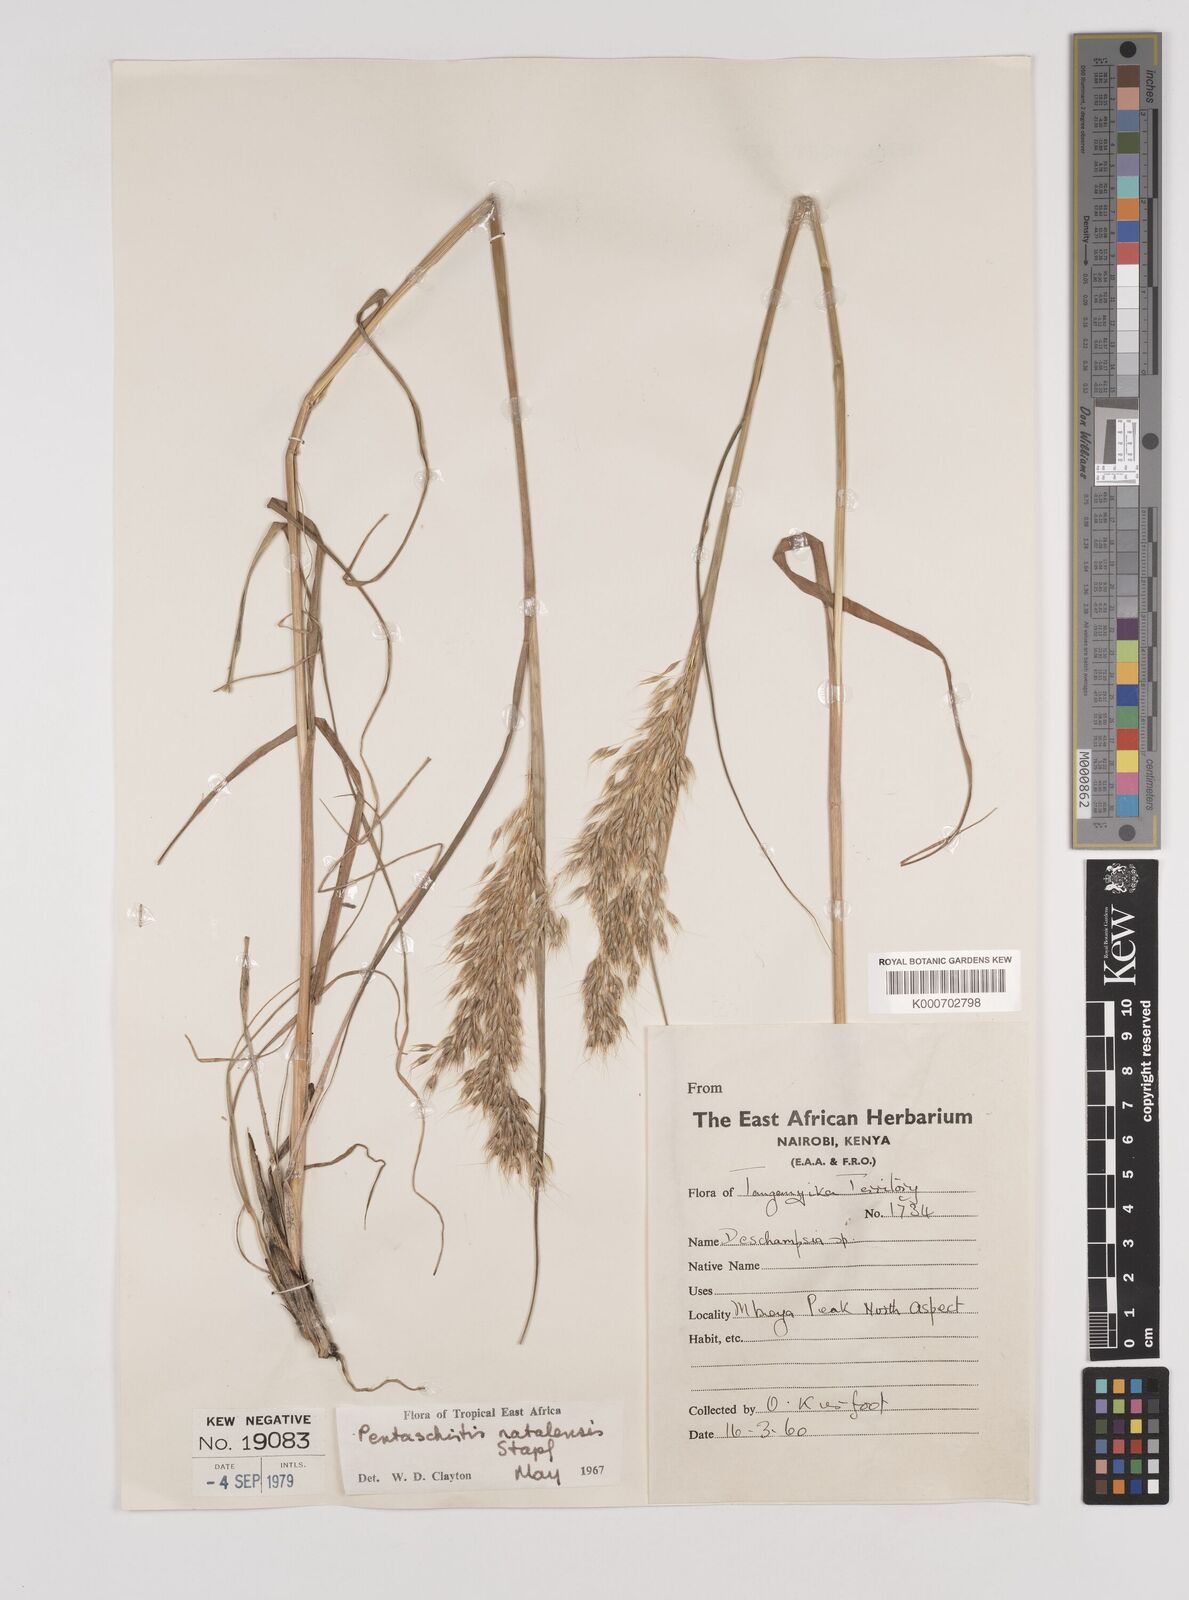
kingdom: Plantae
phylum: Tracheophyta
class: Liliopsida
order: Poales
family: Poaceae
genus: Pentameris
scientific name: Pentameris natalensis
